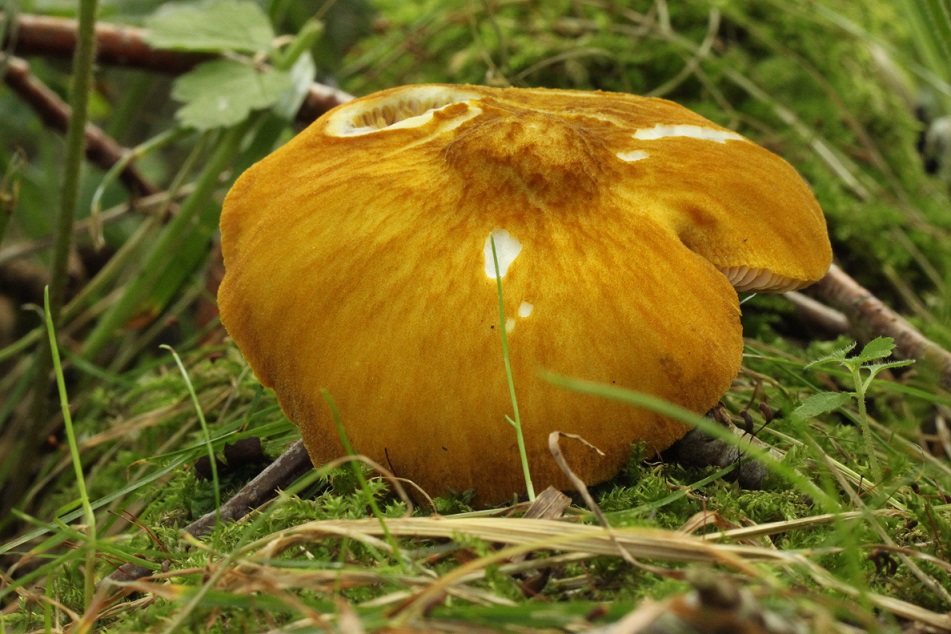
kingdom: Fungi
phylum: Basidiomycota
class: Agaricomycetes
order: Agaricales
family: Pluteaceae
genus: Pluteus
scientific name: Pluteus leoninus
